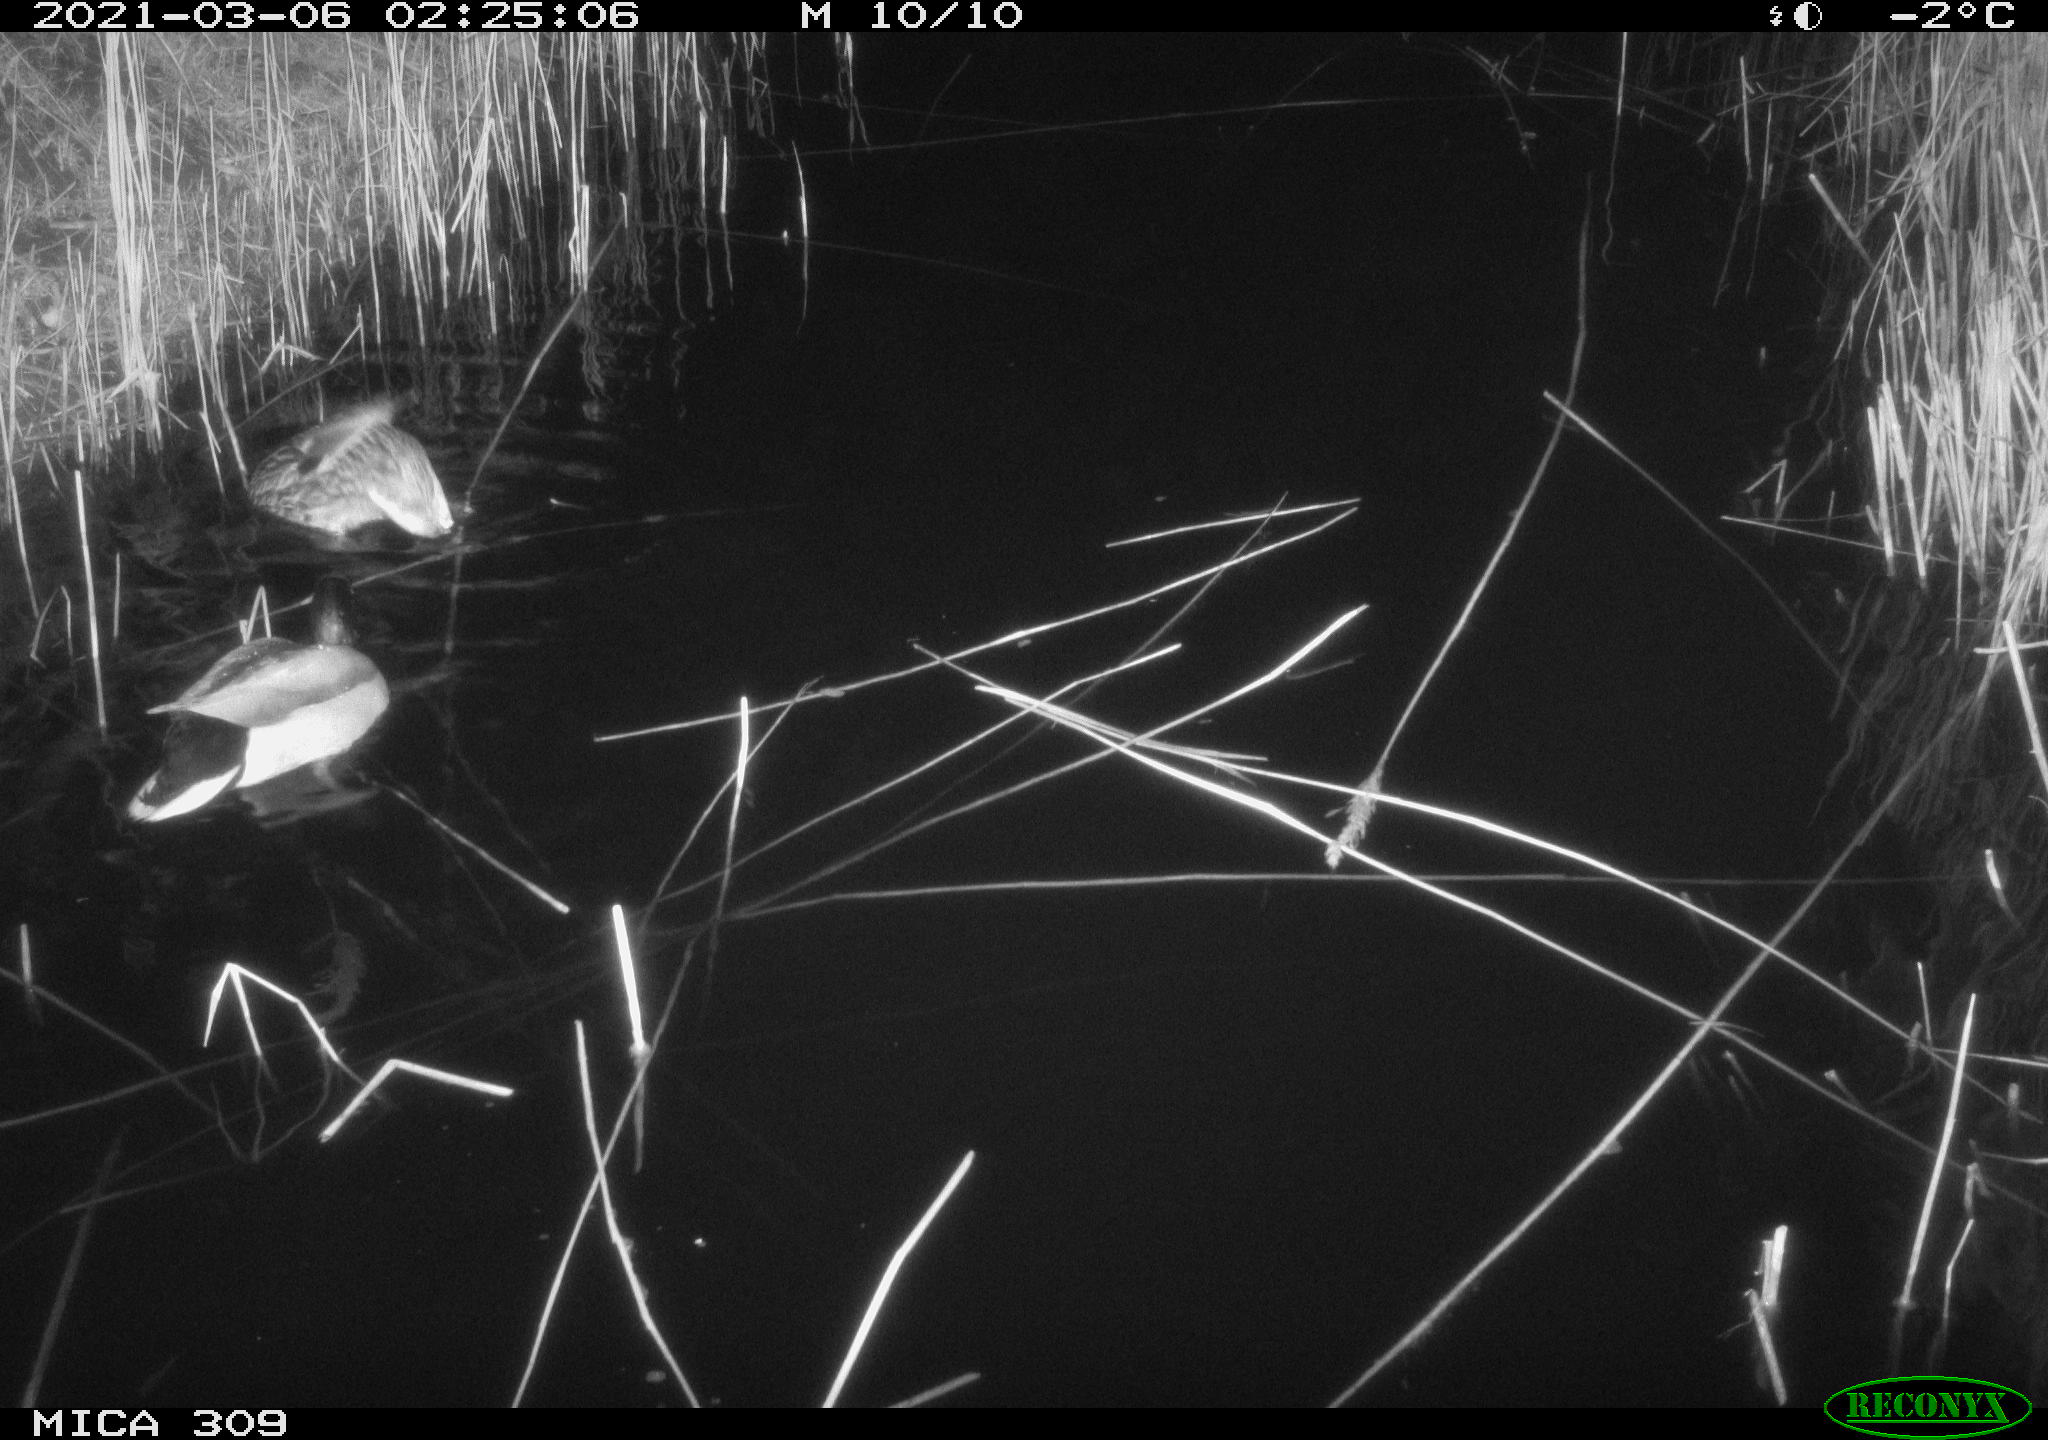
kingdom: Animalia
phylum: Chordata
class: Aves
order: Anseriformes
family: Anatidae
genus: Anas
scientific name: Anas platyrhynchos
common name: Mallard
